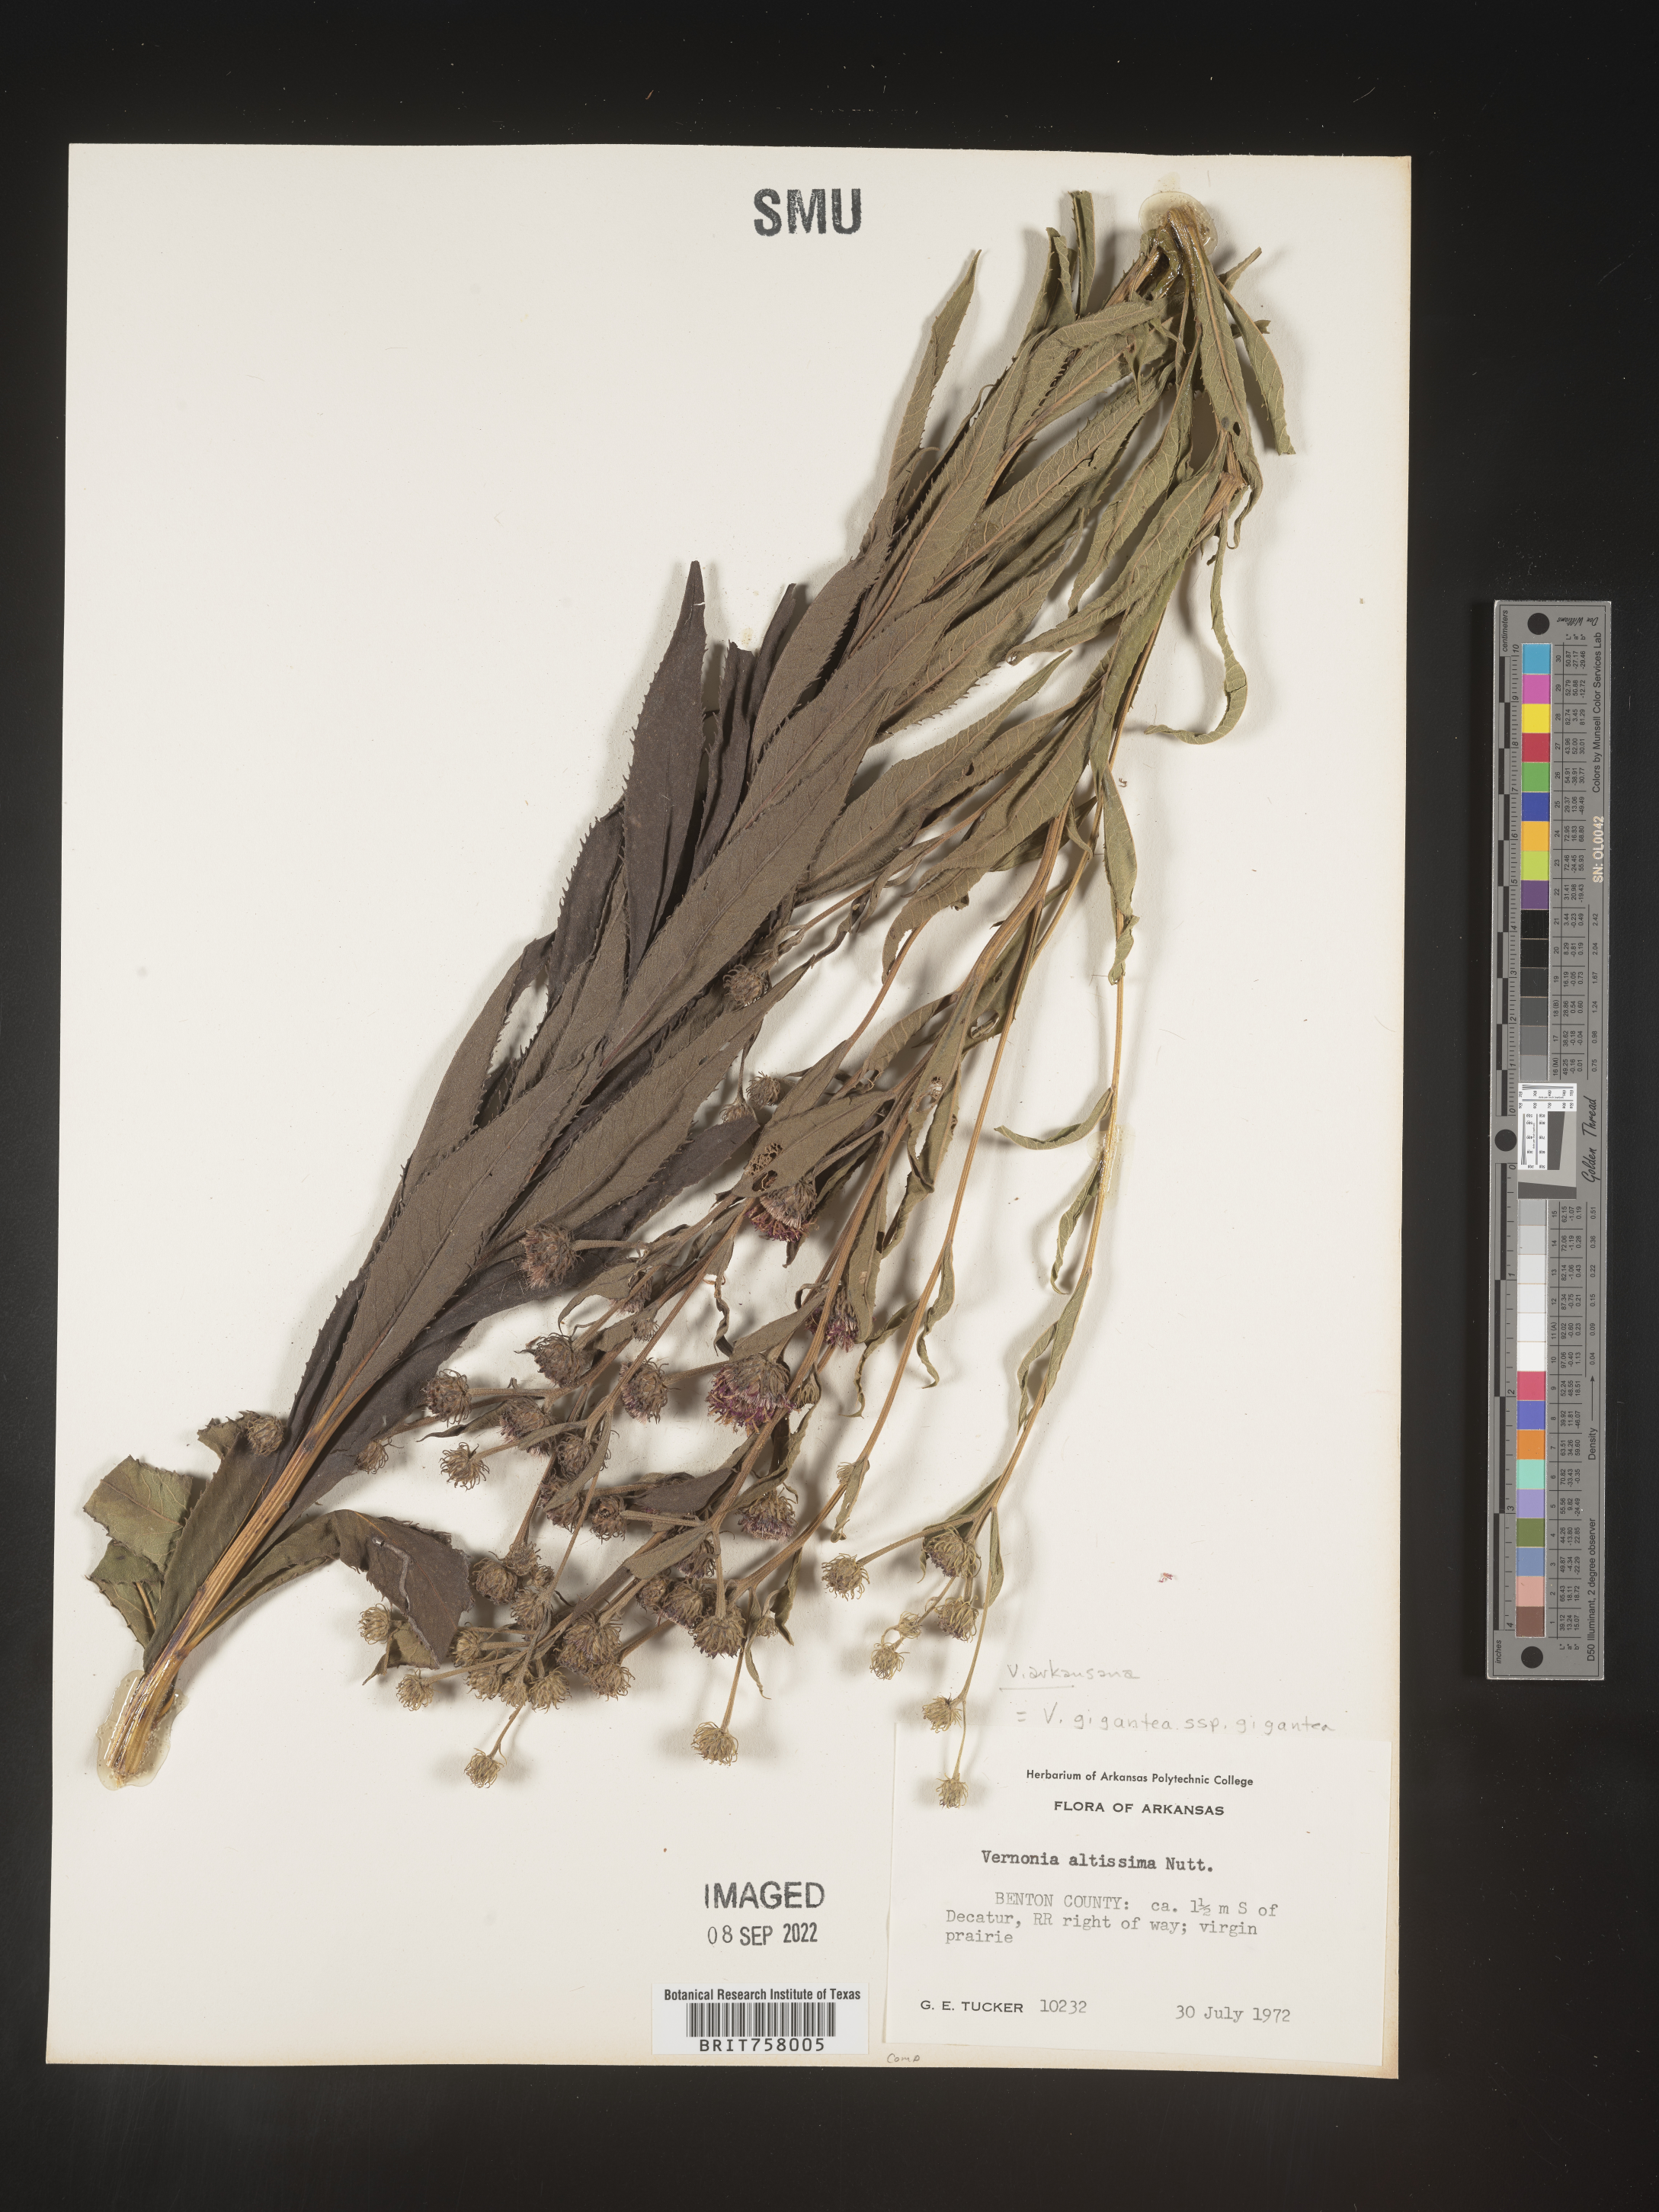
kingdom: Plantae
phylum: Tracheophyta
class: Magnoliopsida
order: Asterales
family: Asteraceae
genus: Vernonia
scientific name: Vernonia arkansana
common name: Ozark ironweed
